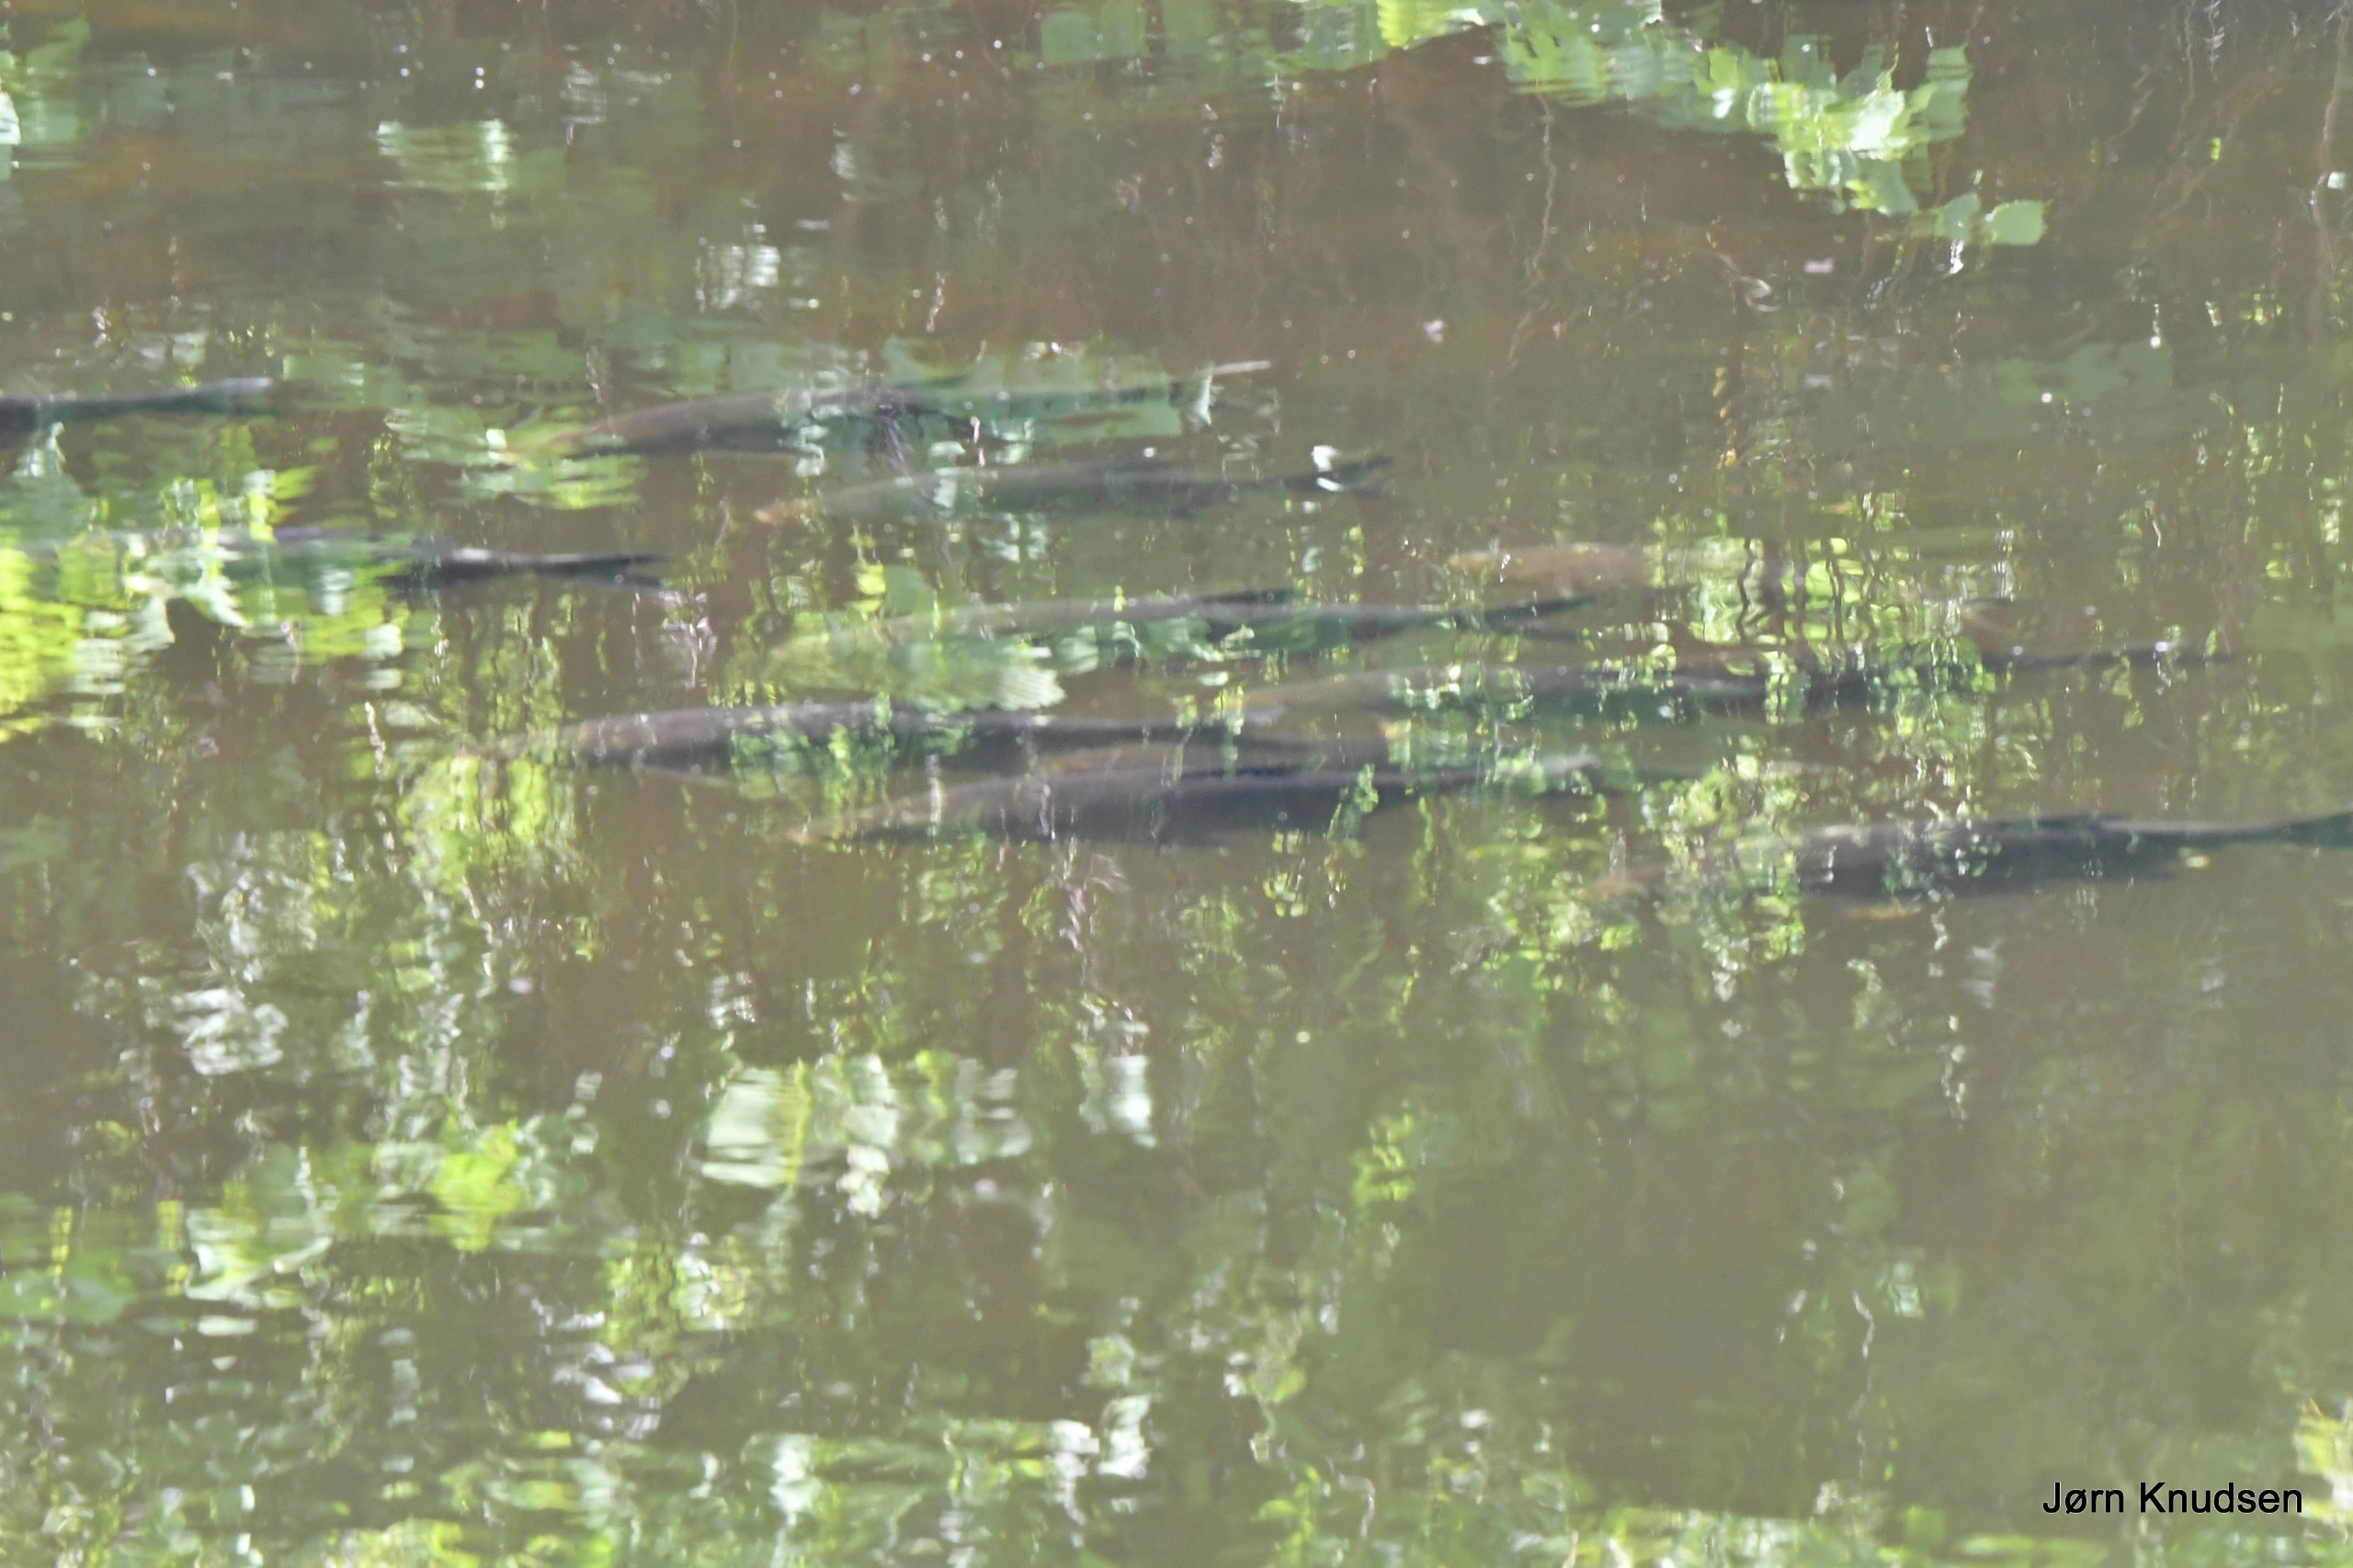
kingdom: Animalia
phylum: Chordata
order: Cypriniformes
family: Cyprinidae
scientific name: Cyprinidae
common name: Karpefamilien
